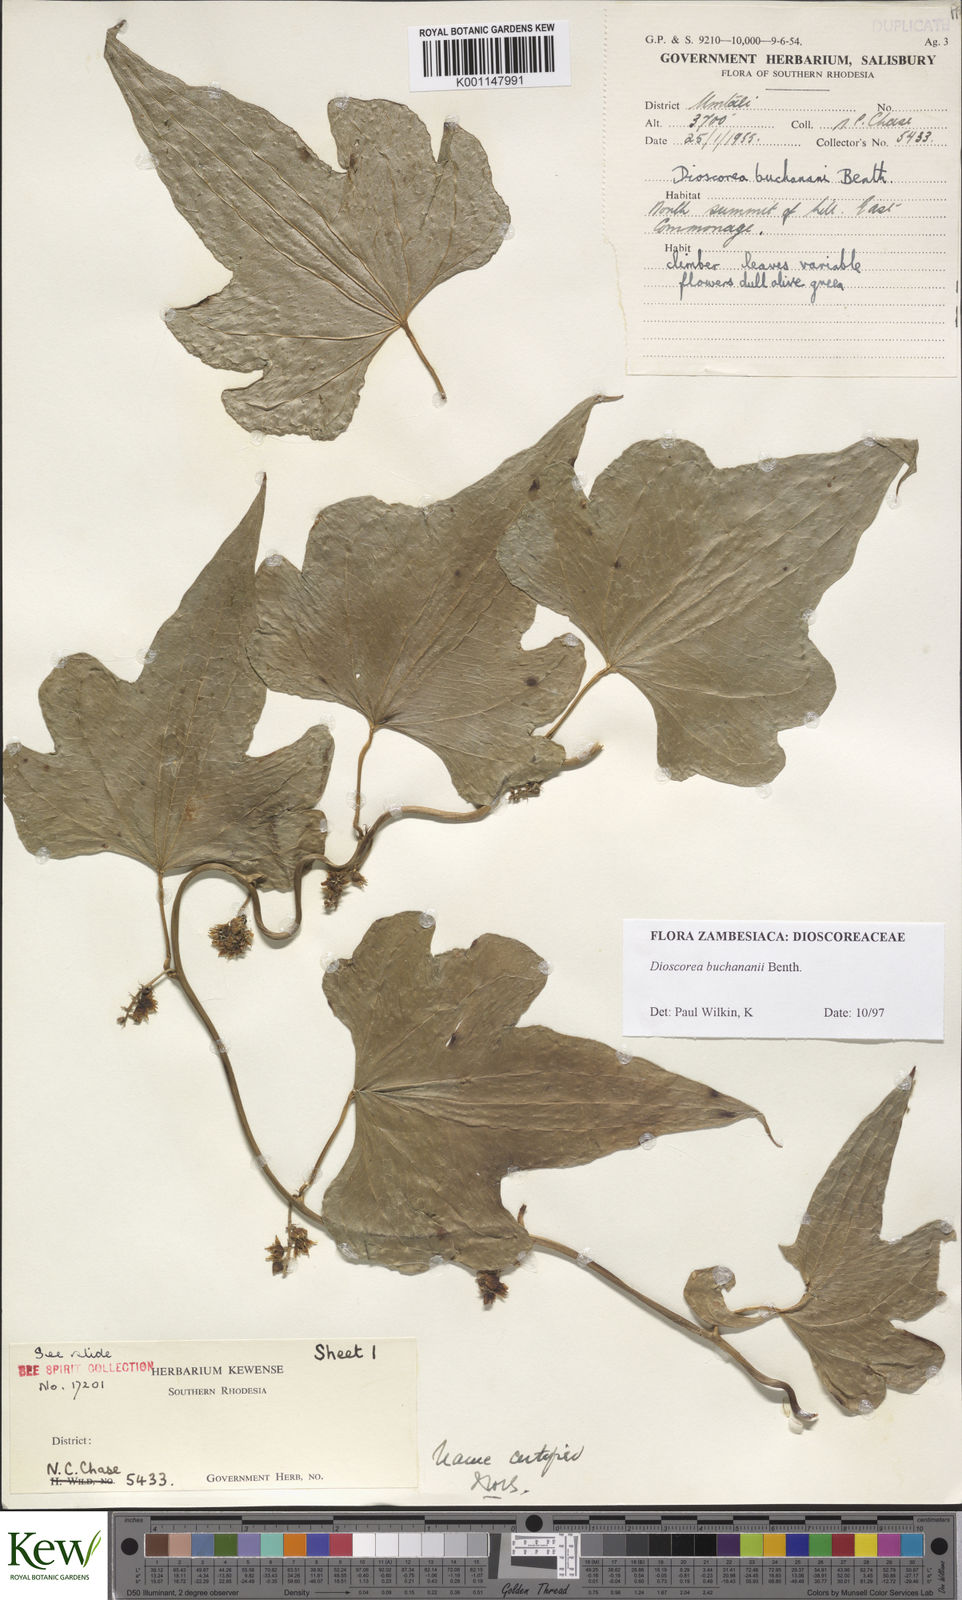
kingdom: Plantae
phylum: Tracheophyta
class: Liliopsida
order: Dioscoreales
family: Dioscoreaceae
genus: Dioscorea
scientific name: Dioscorea buchananii
